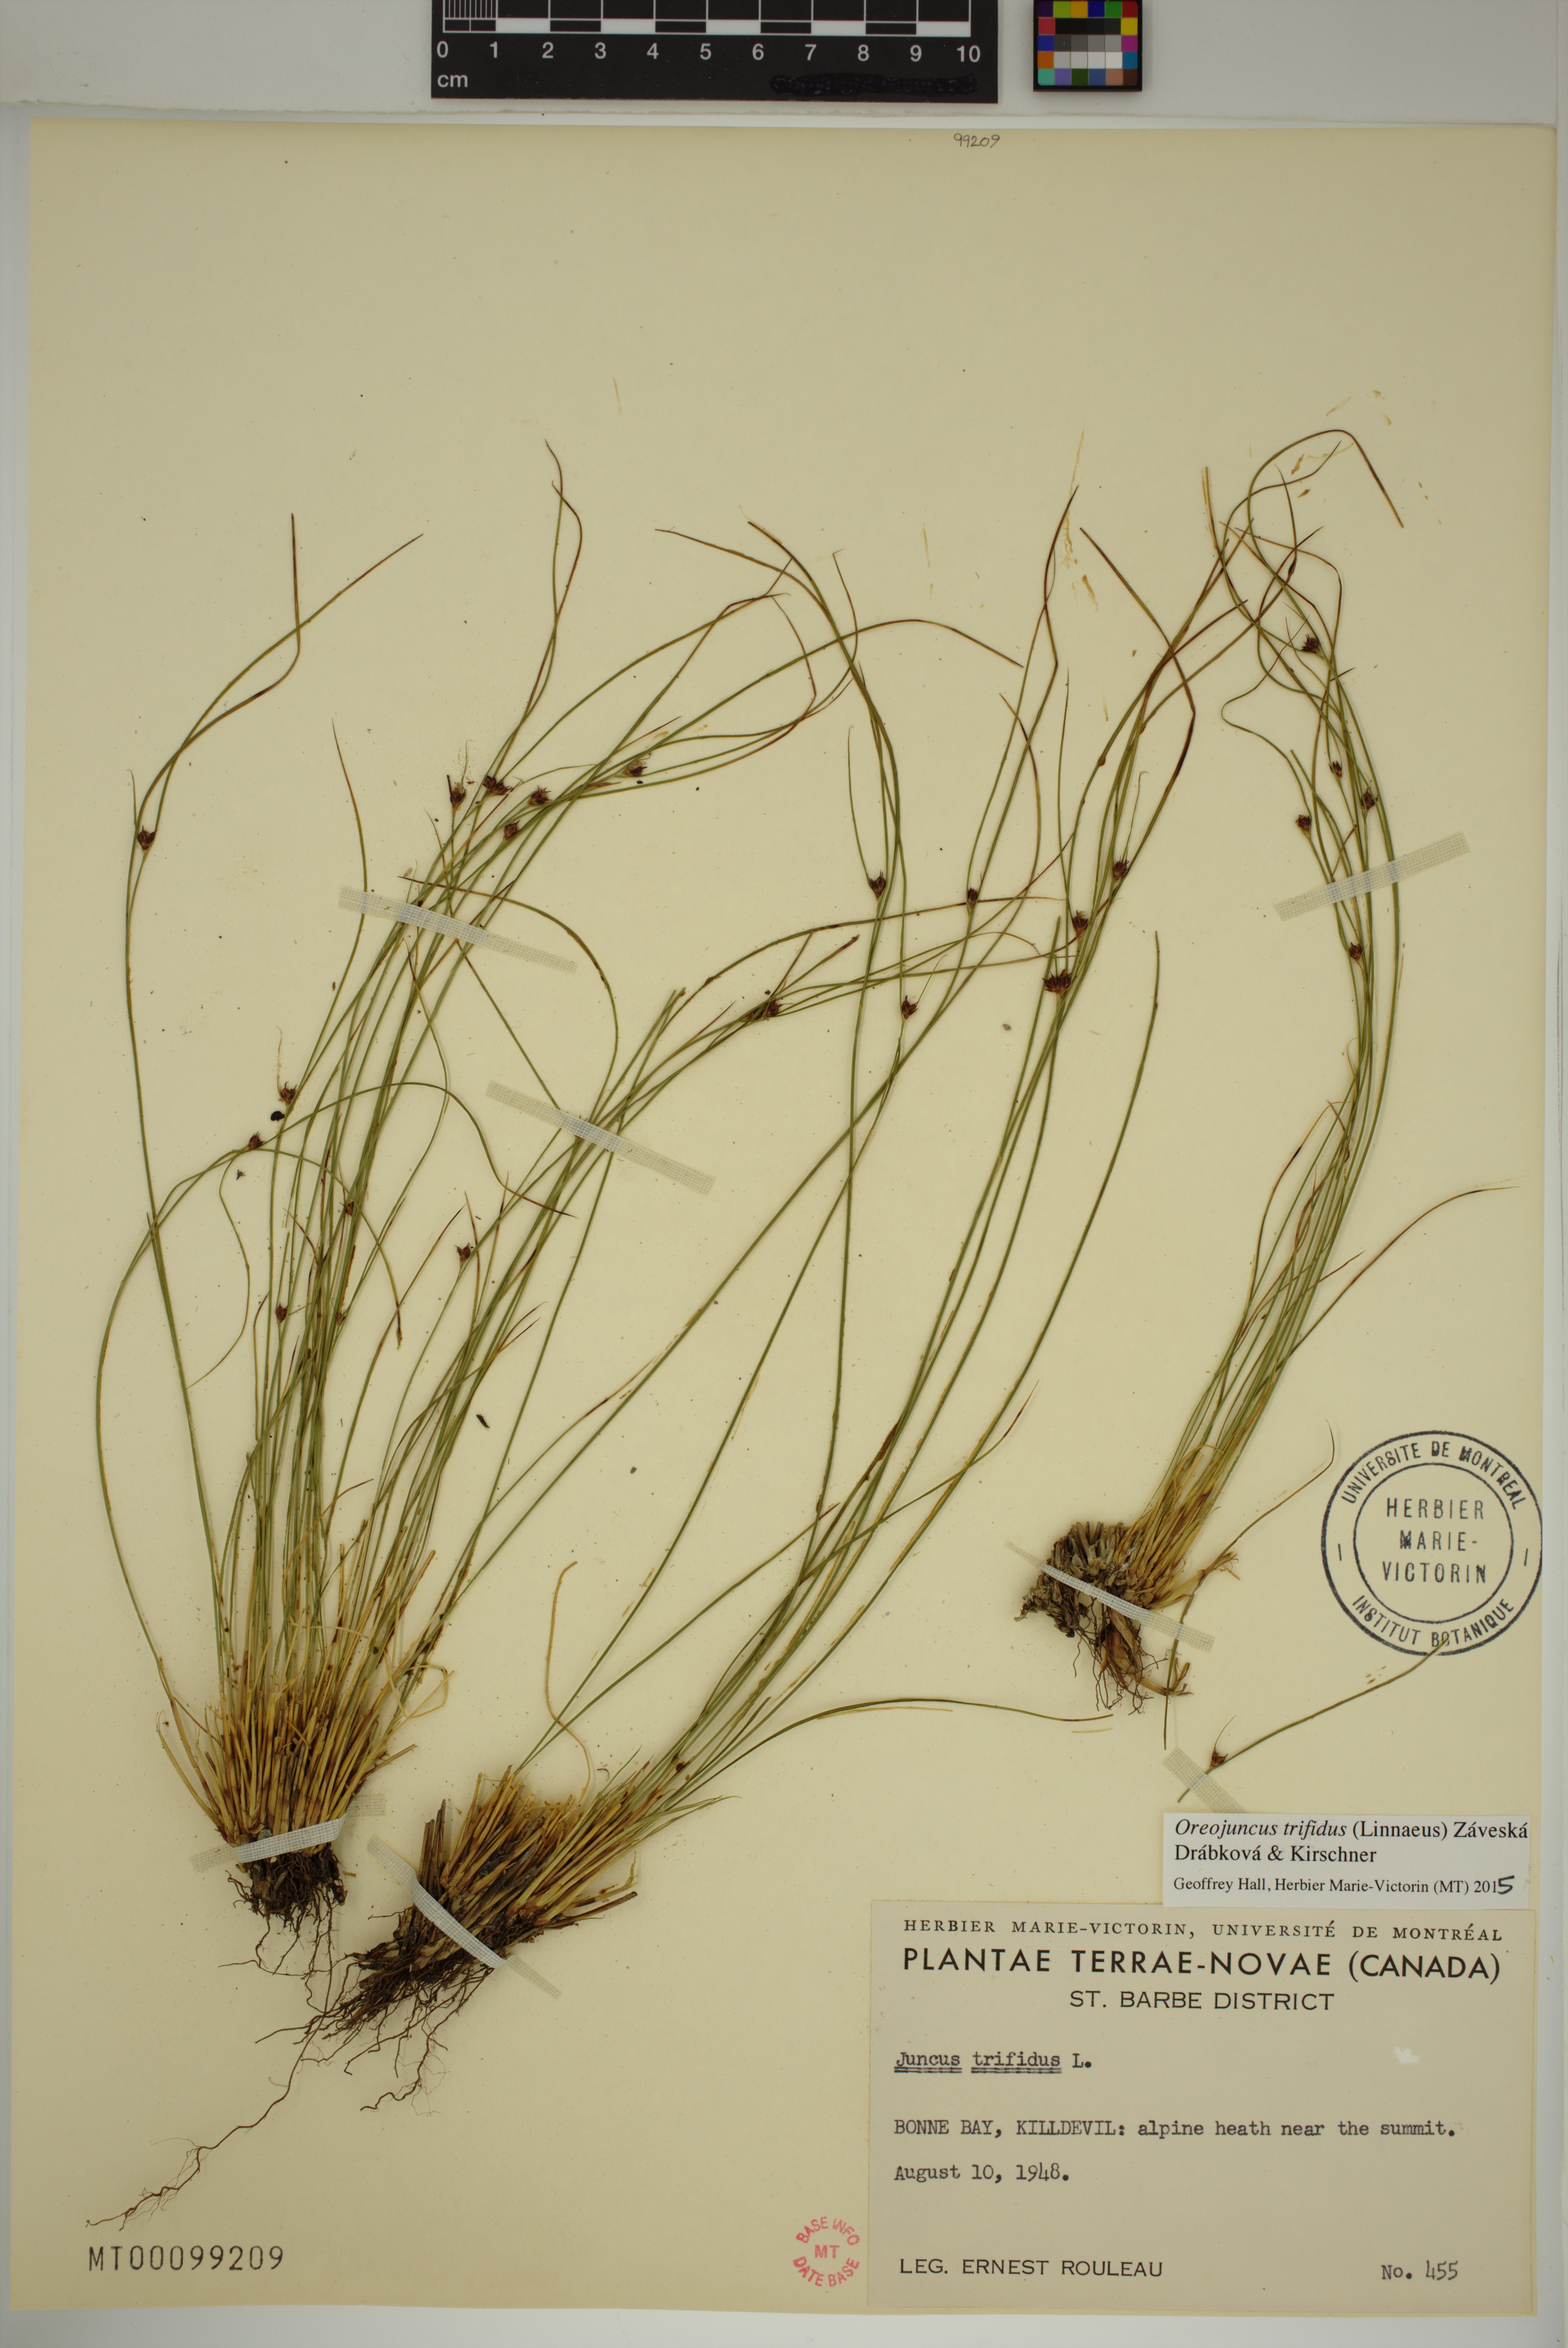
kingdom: Plantae
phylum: Tracheophyta
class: Liliopsida
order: Poales
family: Juncaceae
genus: Oreojuncus
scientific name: Oreojuncus trifidus
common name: Highland rush
